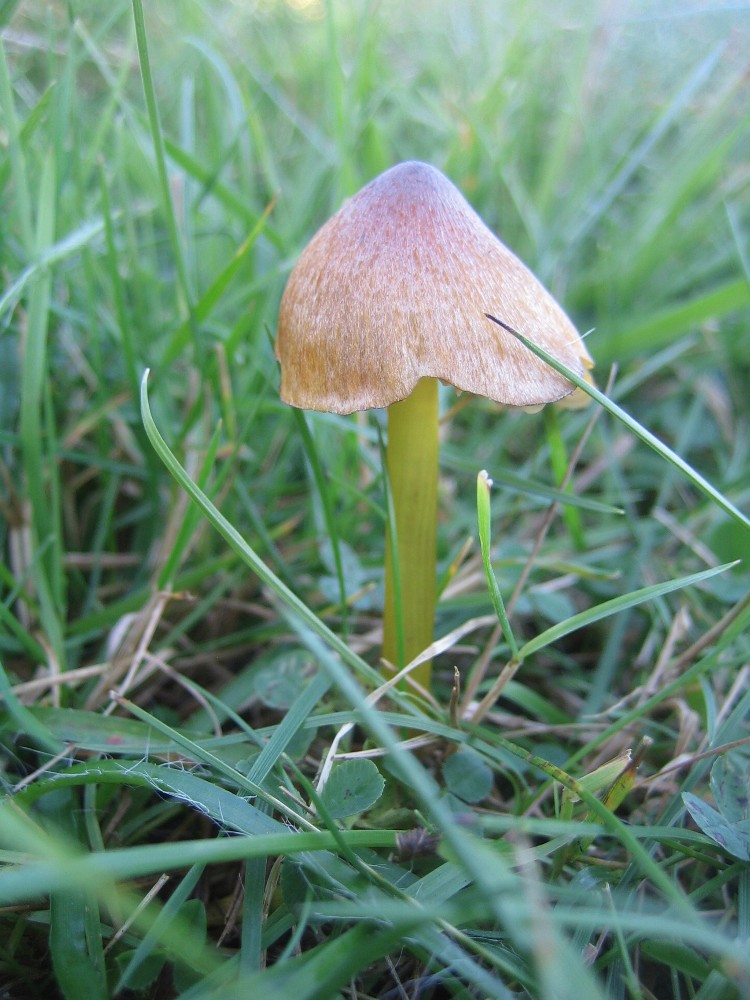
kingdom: Fungi
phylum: Basidiomycota
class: Agaricomycetes
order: Agaricales
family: Hygrophoraceae
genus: Hygrocybe
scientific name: Hygrocybe conica
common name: kegle-vokshat
